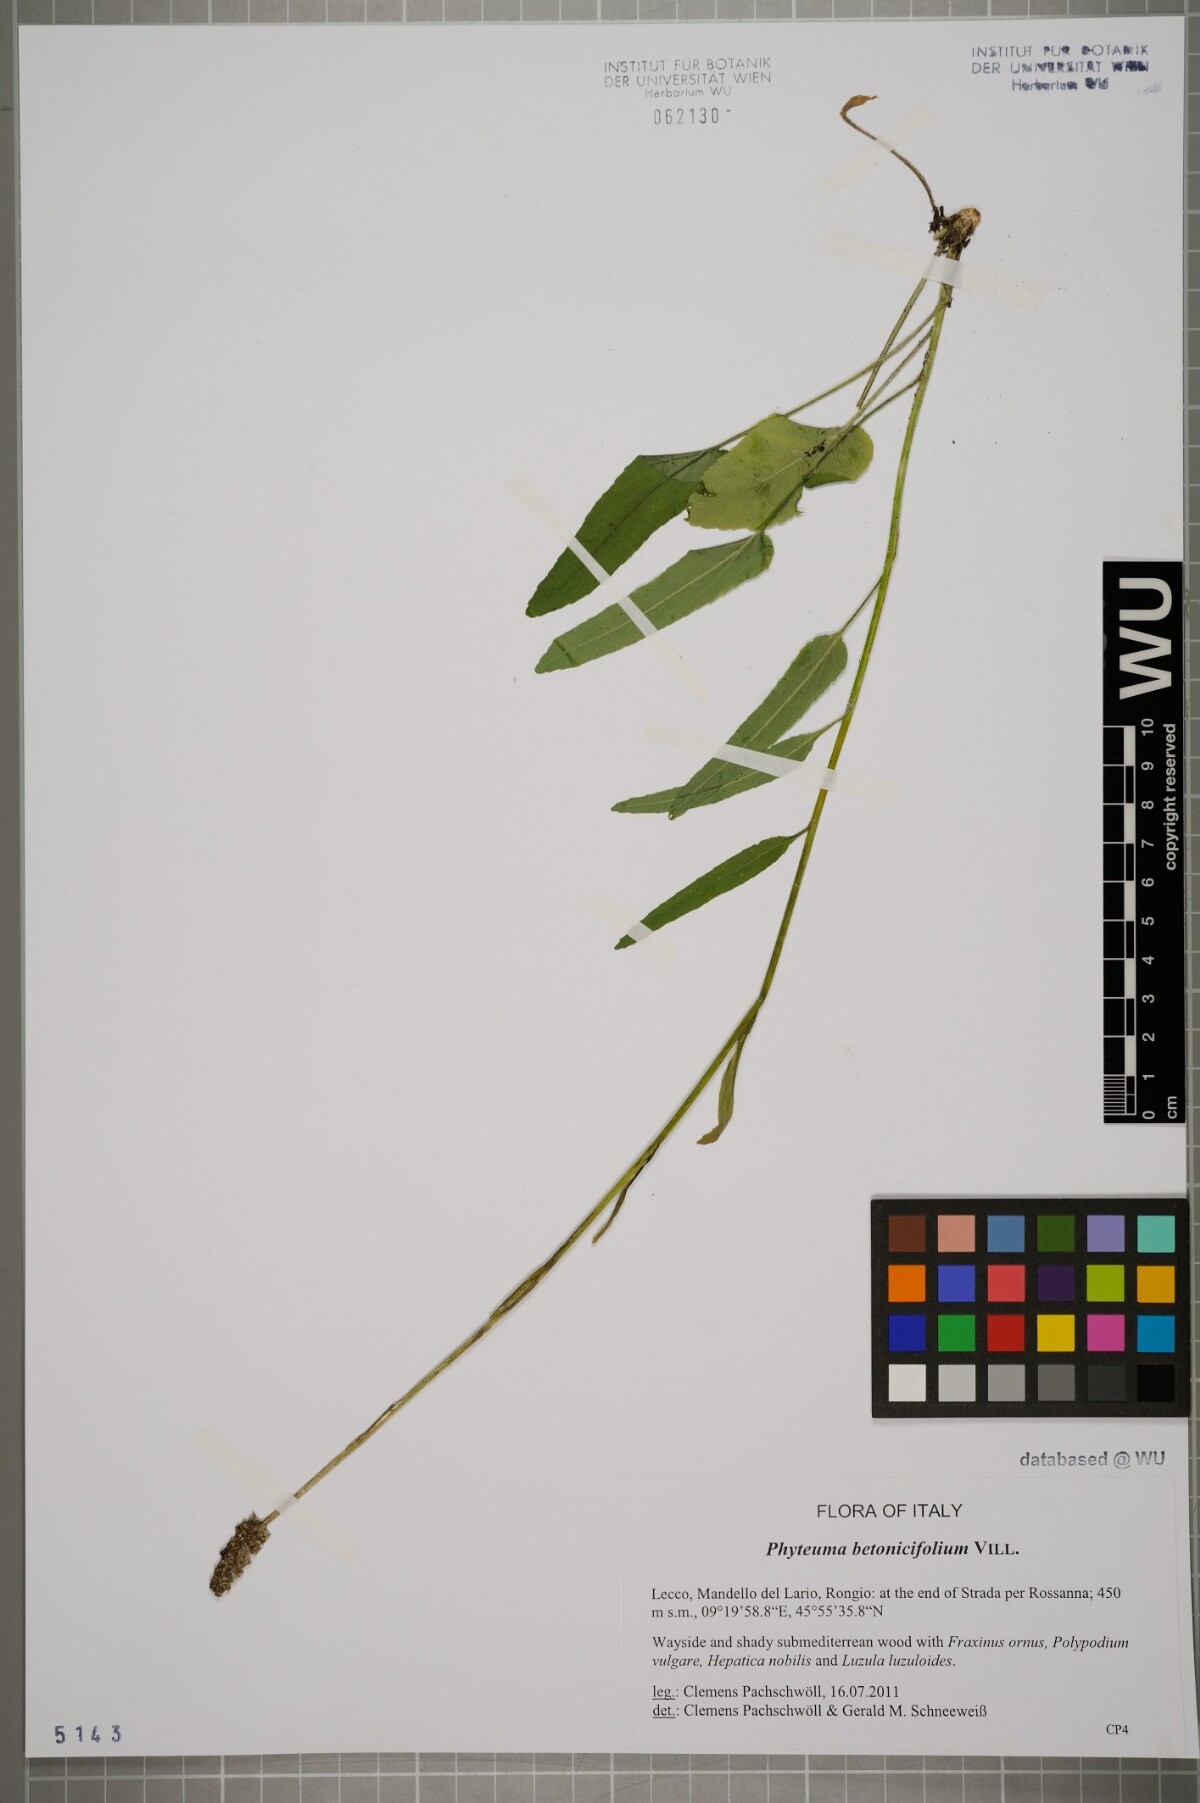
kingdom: Plantae
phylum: Tracheophyta
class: Magnoliopsida
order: Asterales
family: Campanulaceae
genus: Phyteuma
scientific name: Phyteuma betonicifolium
